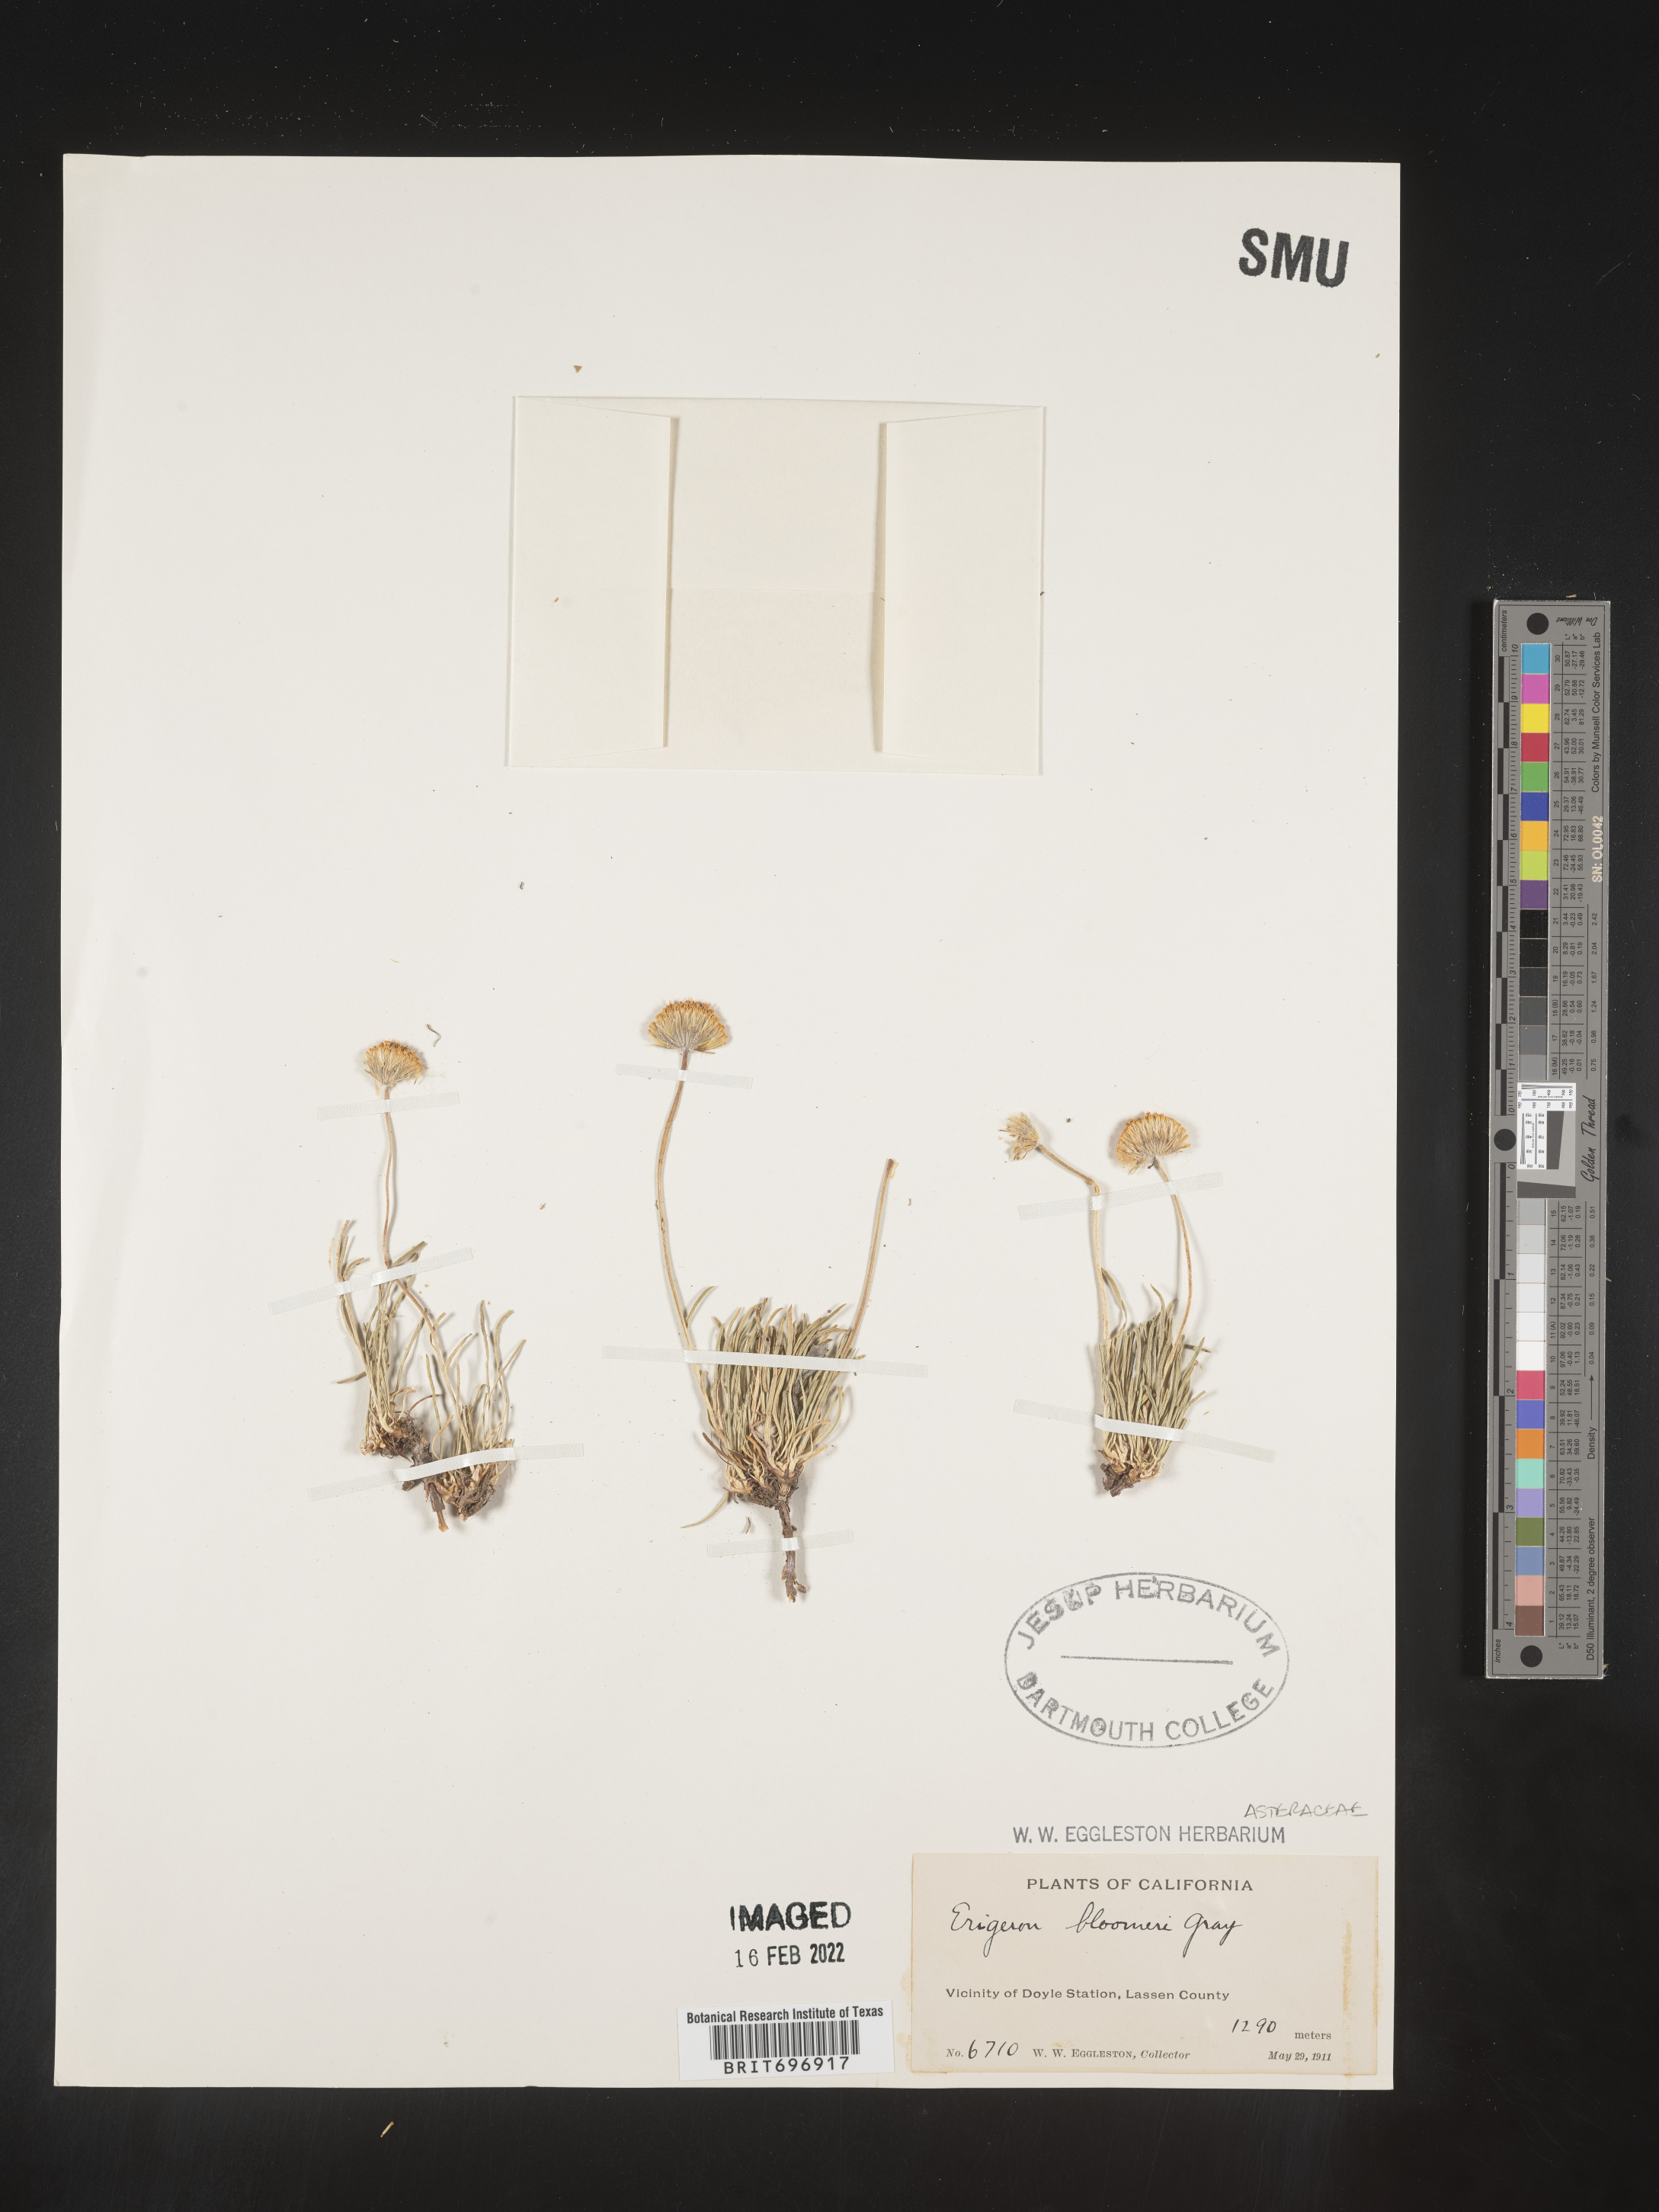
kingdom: Plantae
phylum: Tracheophyta
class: Magnoliopsida
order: Asterales
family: Asteraceae
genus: Erigeron
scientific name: Erigeron bloomeri
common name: Bloomer's fleabane
